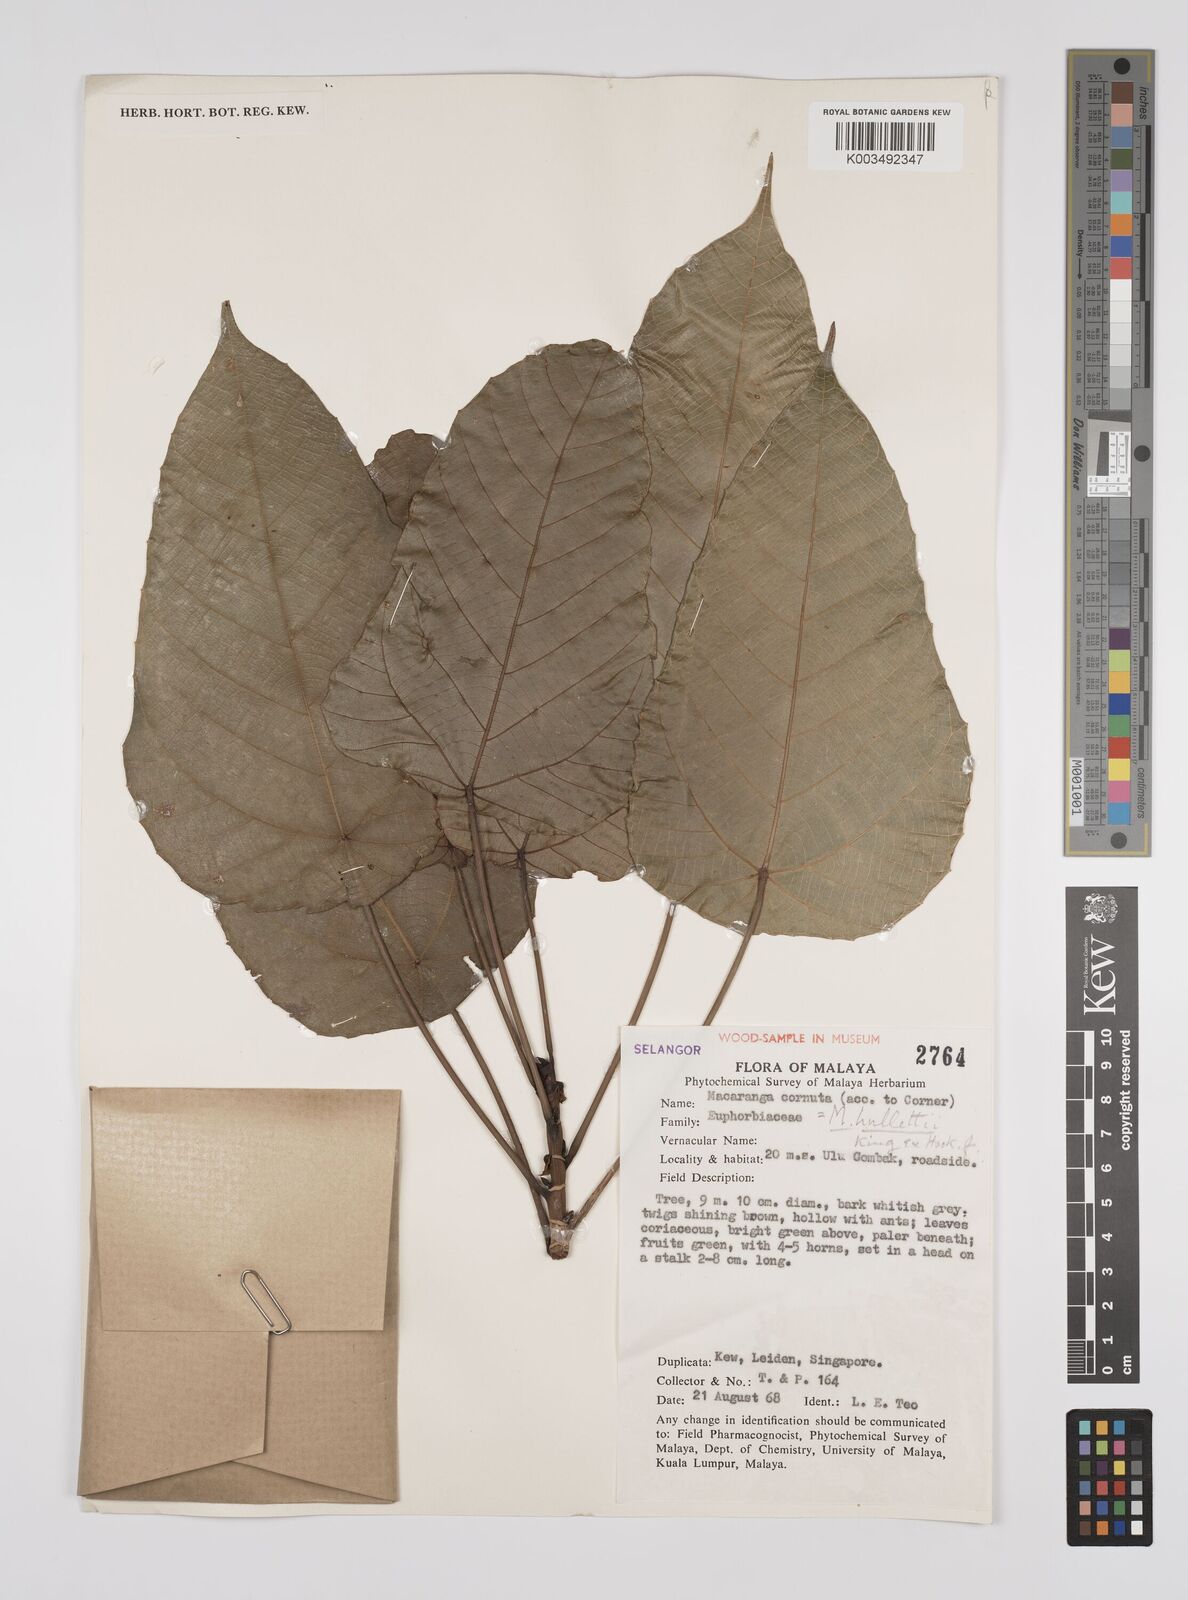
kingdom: Plantae
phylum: Tracheophyta
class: Magnoliopsida
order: Malpighiales
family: Euphorbiaceae
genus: Macaranga
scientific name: Macaranga hullettii
